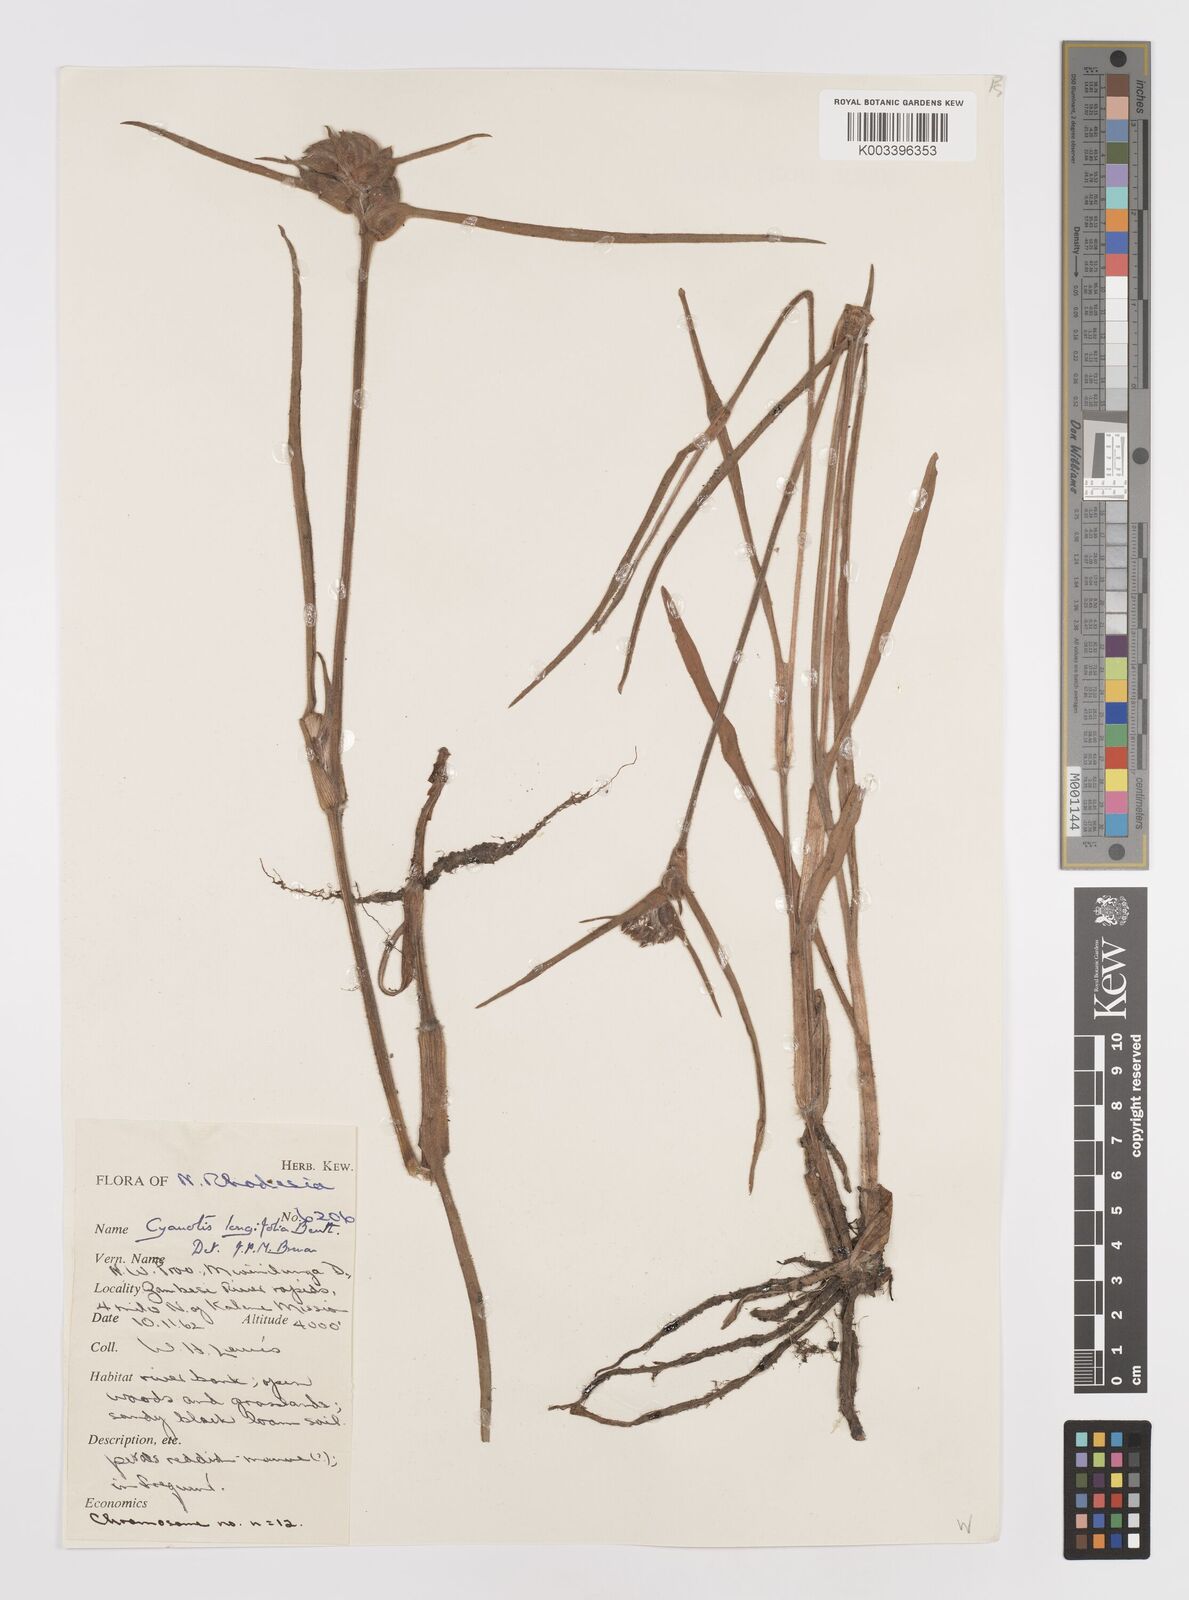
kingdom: Plantae
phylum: Tracheophyta
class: Liliopsida
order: Commelinales
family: Commelinaceae
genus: Cyanotis
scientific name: Cyanotis longifolia
